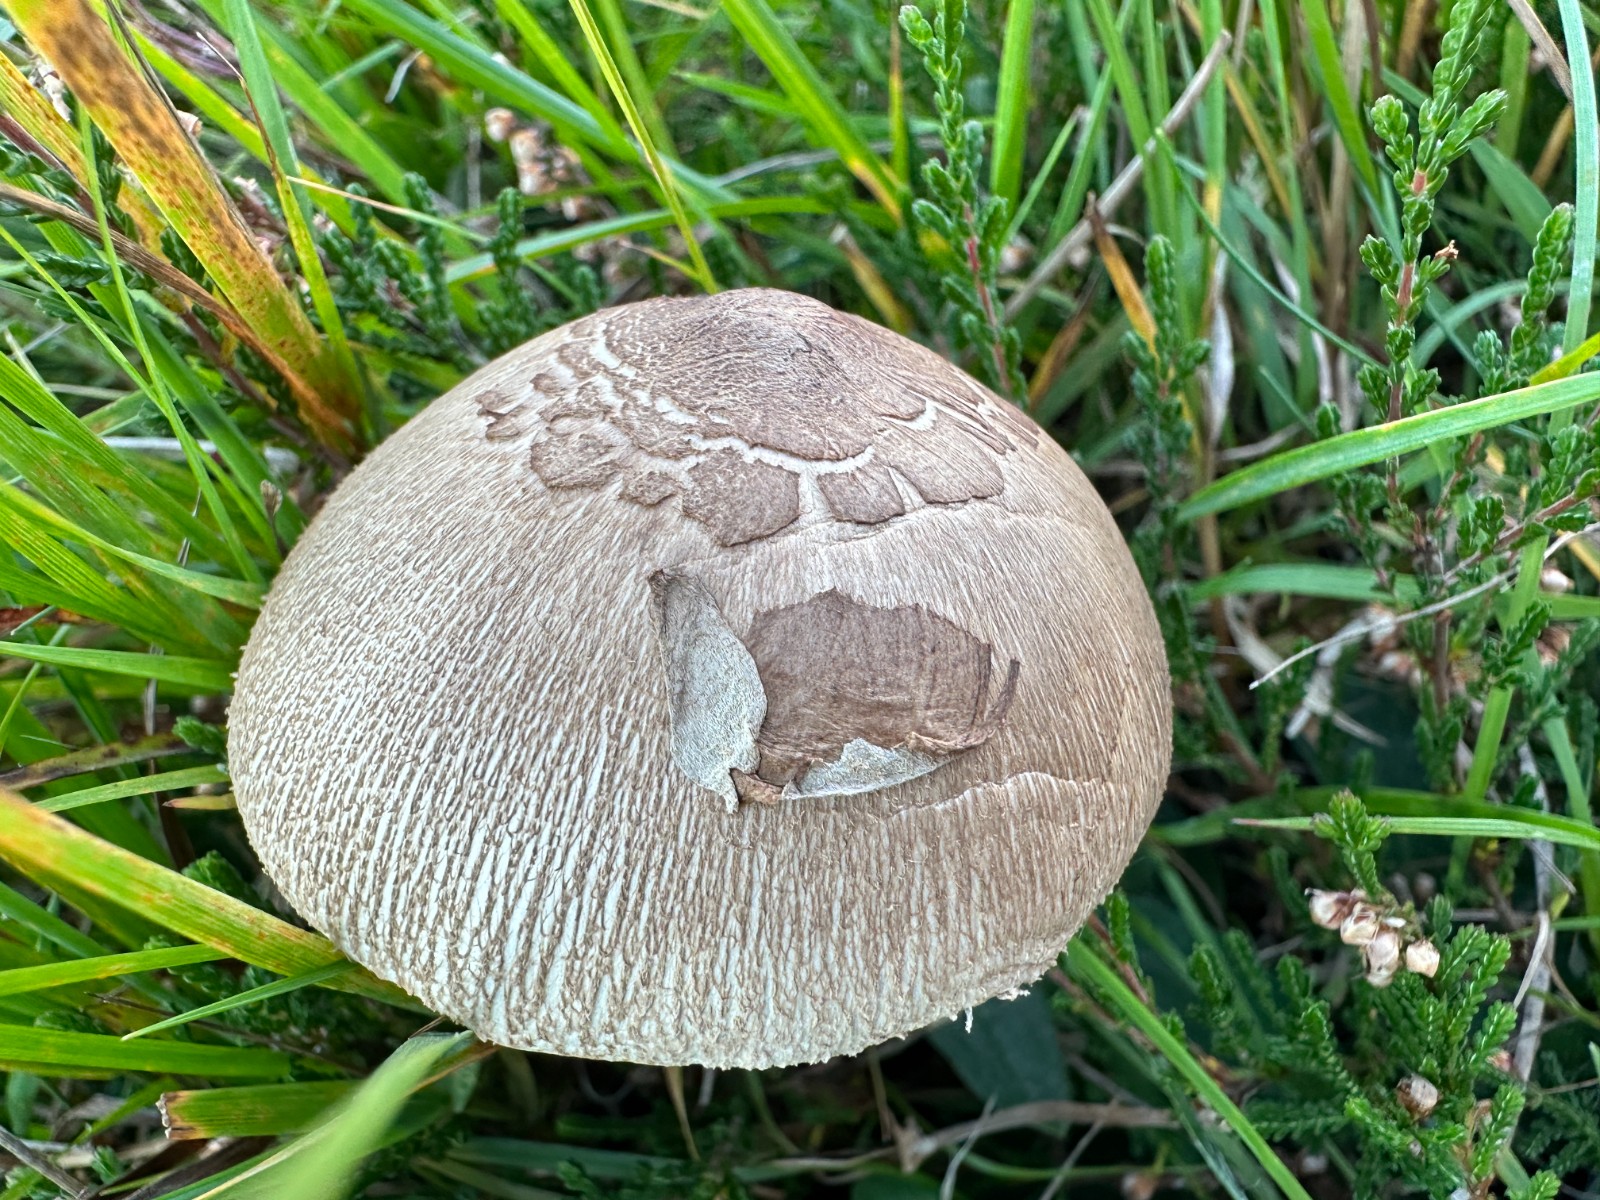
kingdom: Fungi
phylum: Basidiomycota
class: Agaricomycetes
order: Agaricales
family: Agaricaceae
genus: Macrolepiota
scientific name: Macrolepiota excoriata
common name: mark-kæmpeparasolhat
